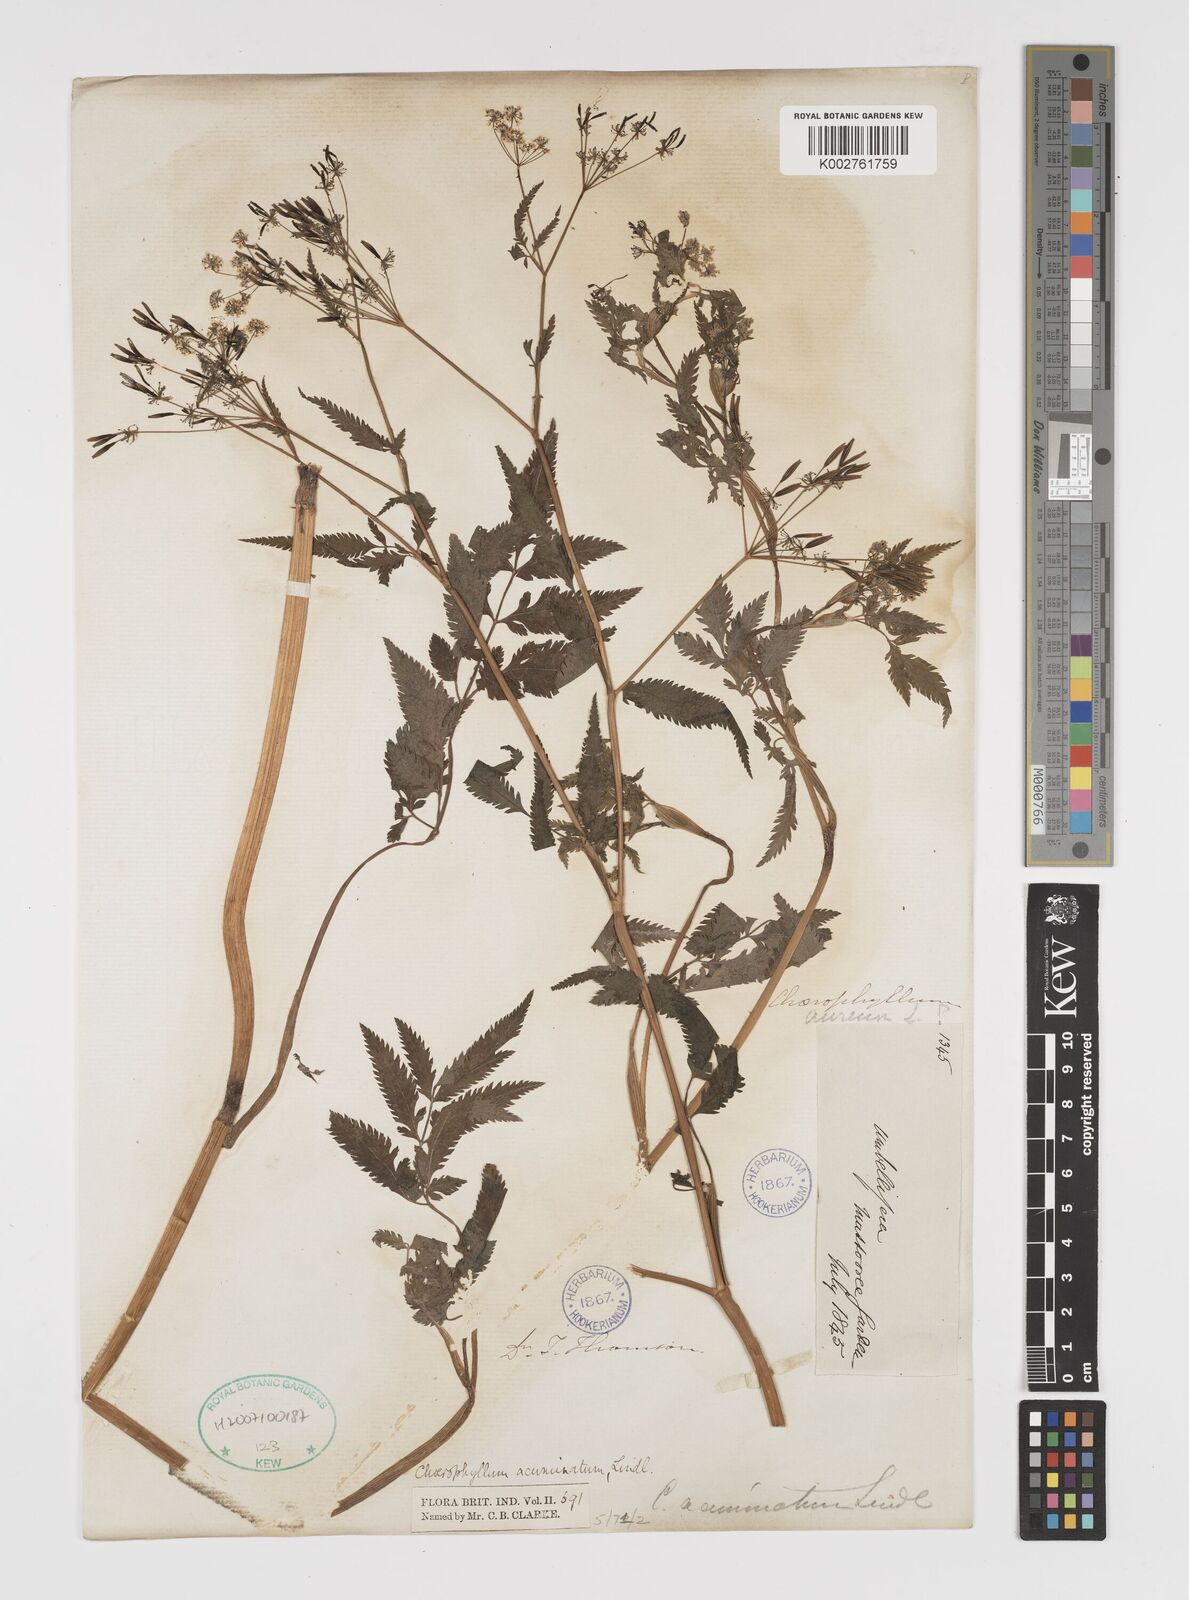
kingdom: Plantae
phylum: Tracheophyta
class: Magnoliopsida
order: Apiales
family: Apiaceae
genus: Chaerophyllum
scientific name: Chaerophyllum reflexum
